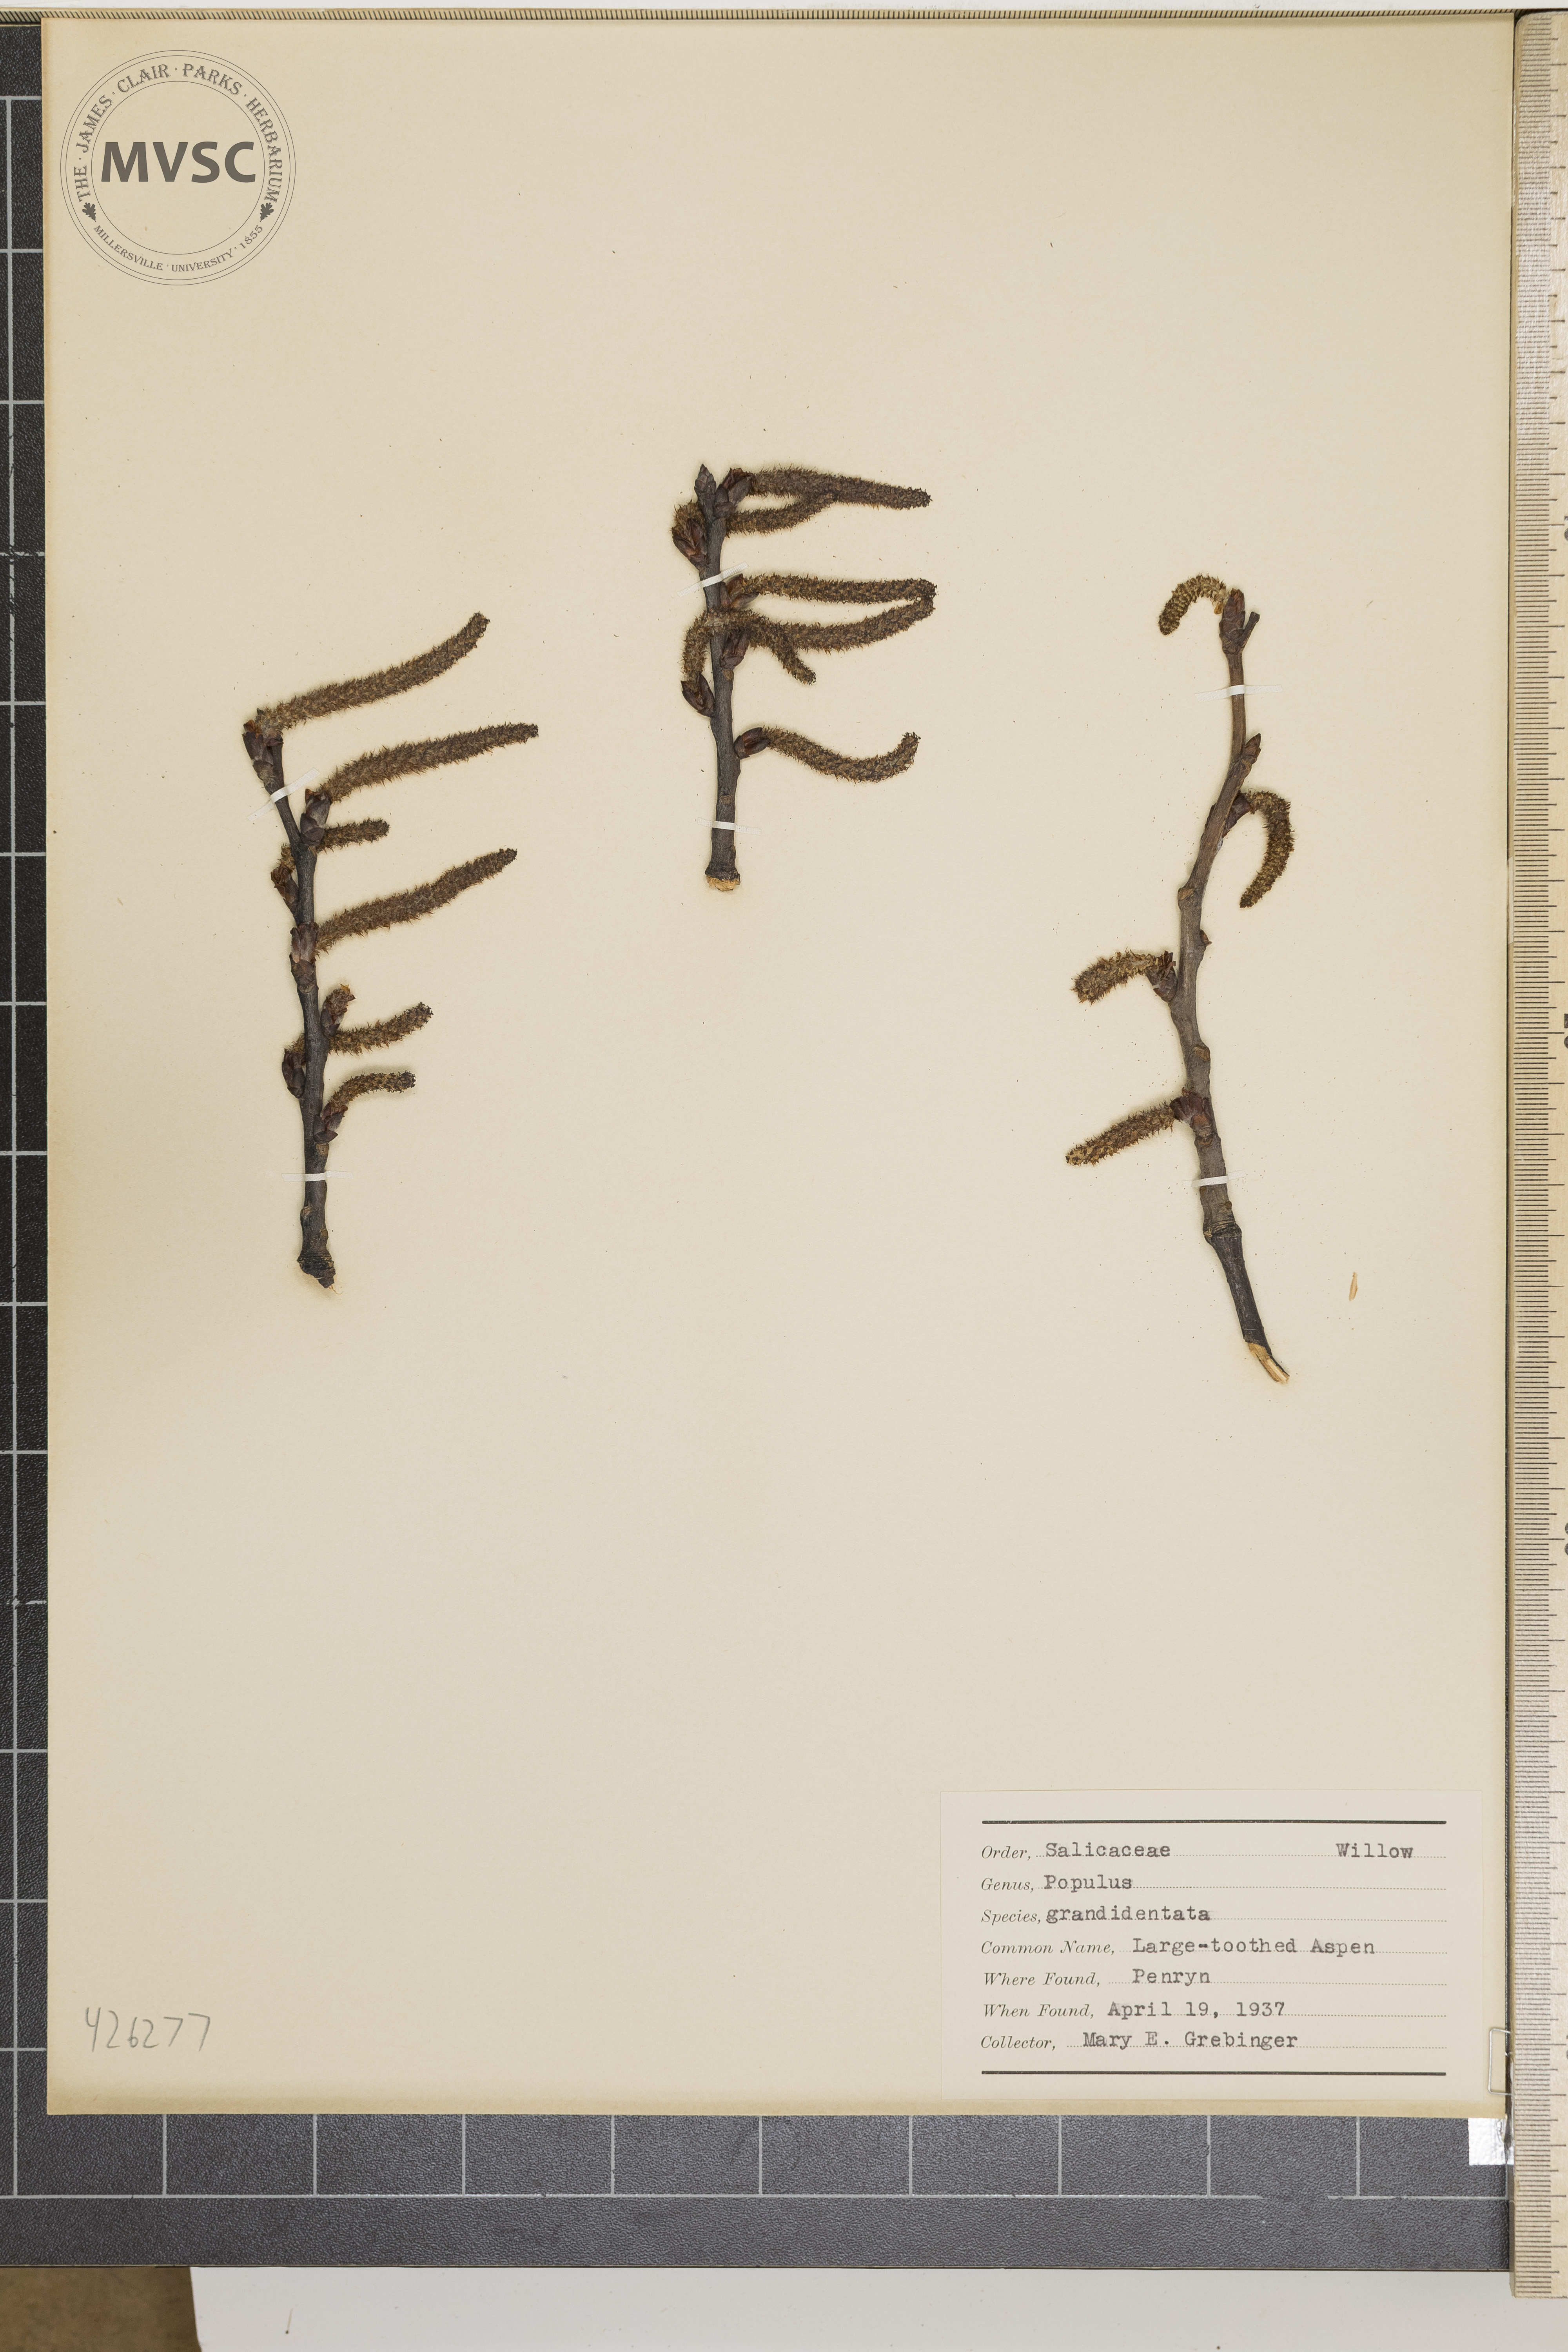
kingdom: Plantae
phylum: Tracheophyta
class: Magnoliopsida
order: Malpighiales
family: Salicaceae
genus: Populus
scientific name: Populus grandidentata
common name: Large-toothed aspen
